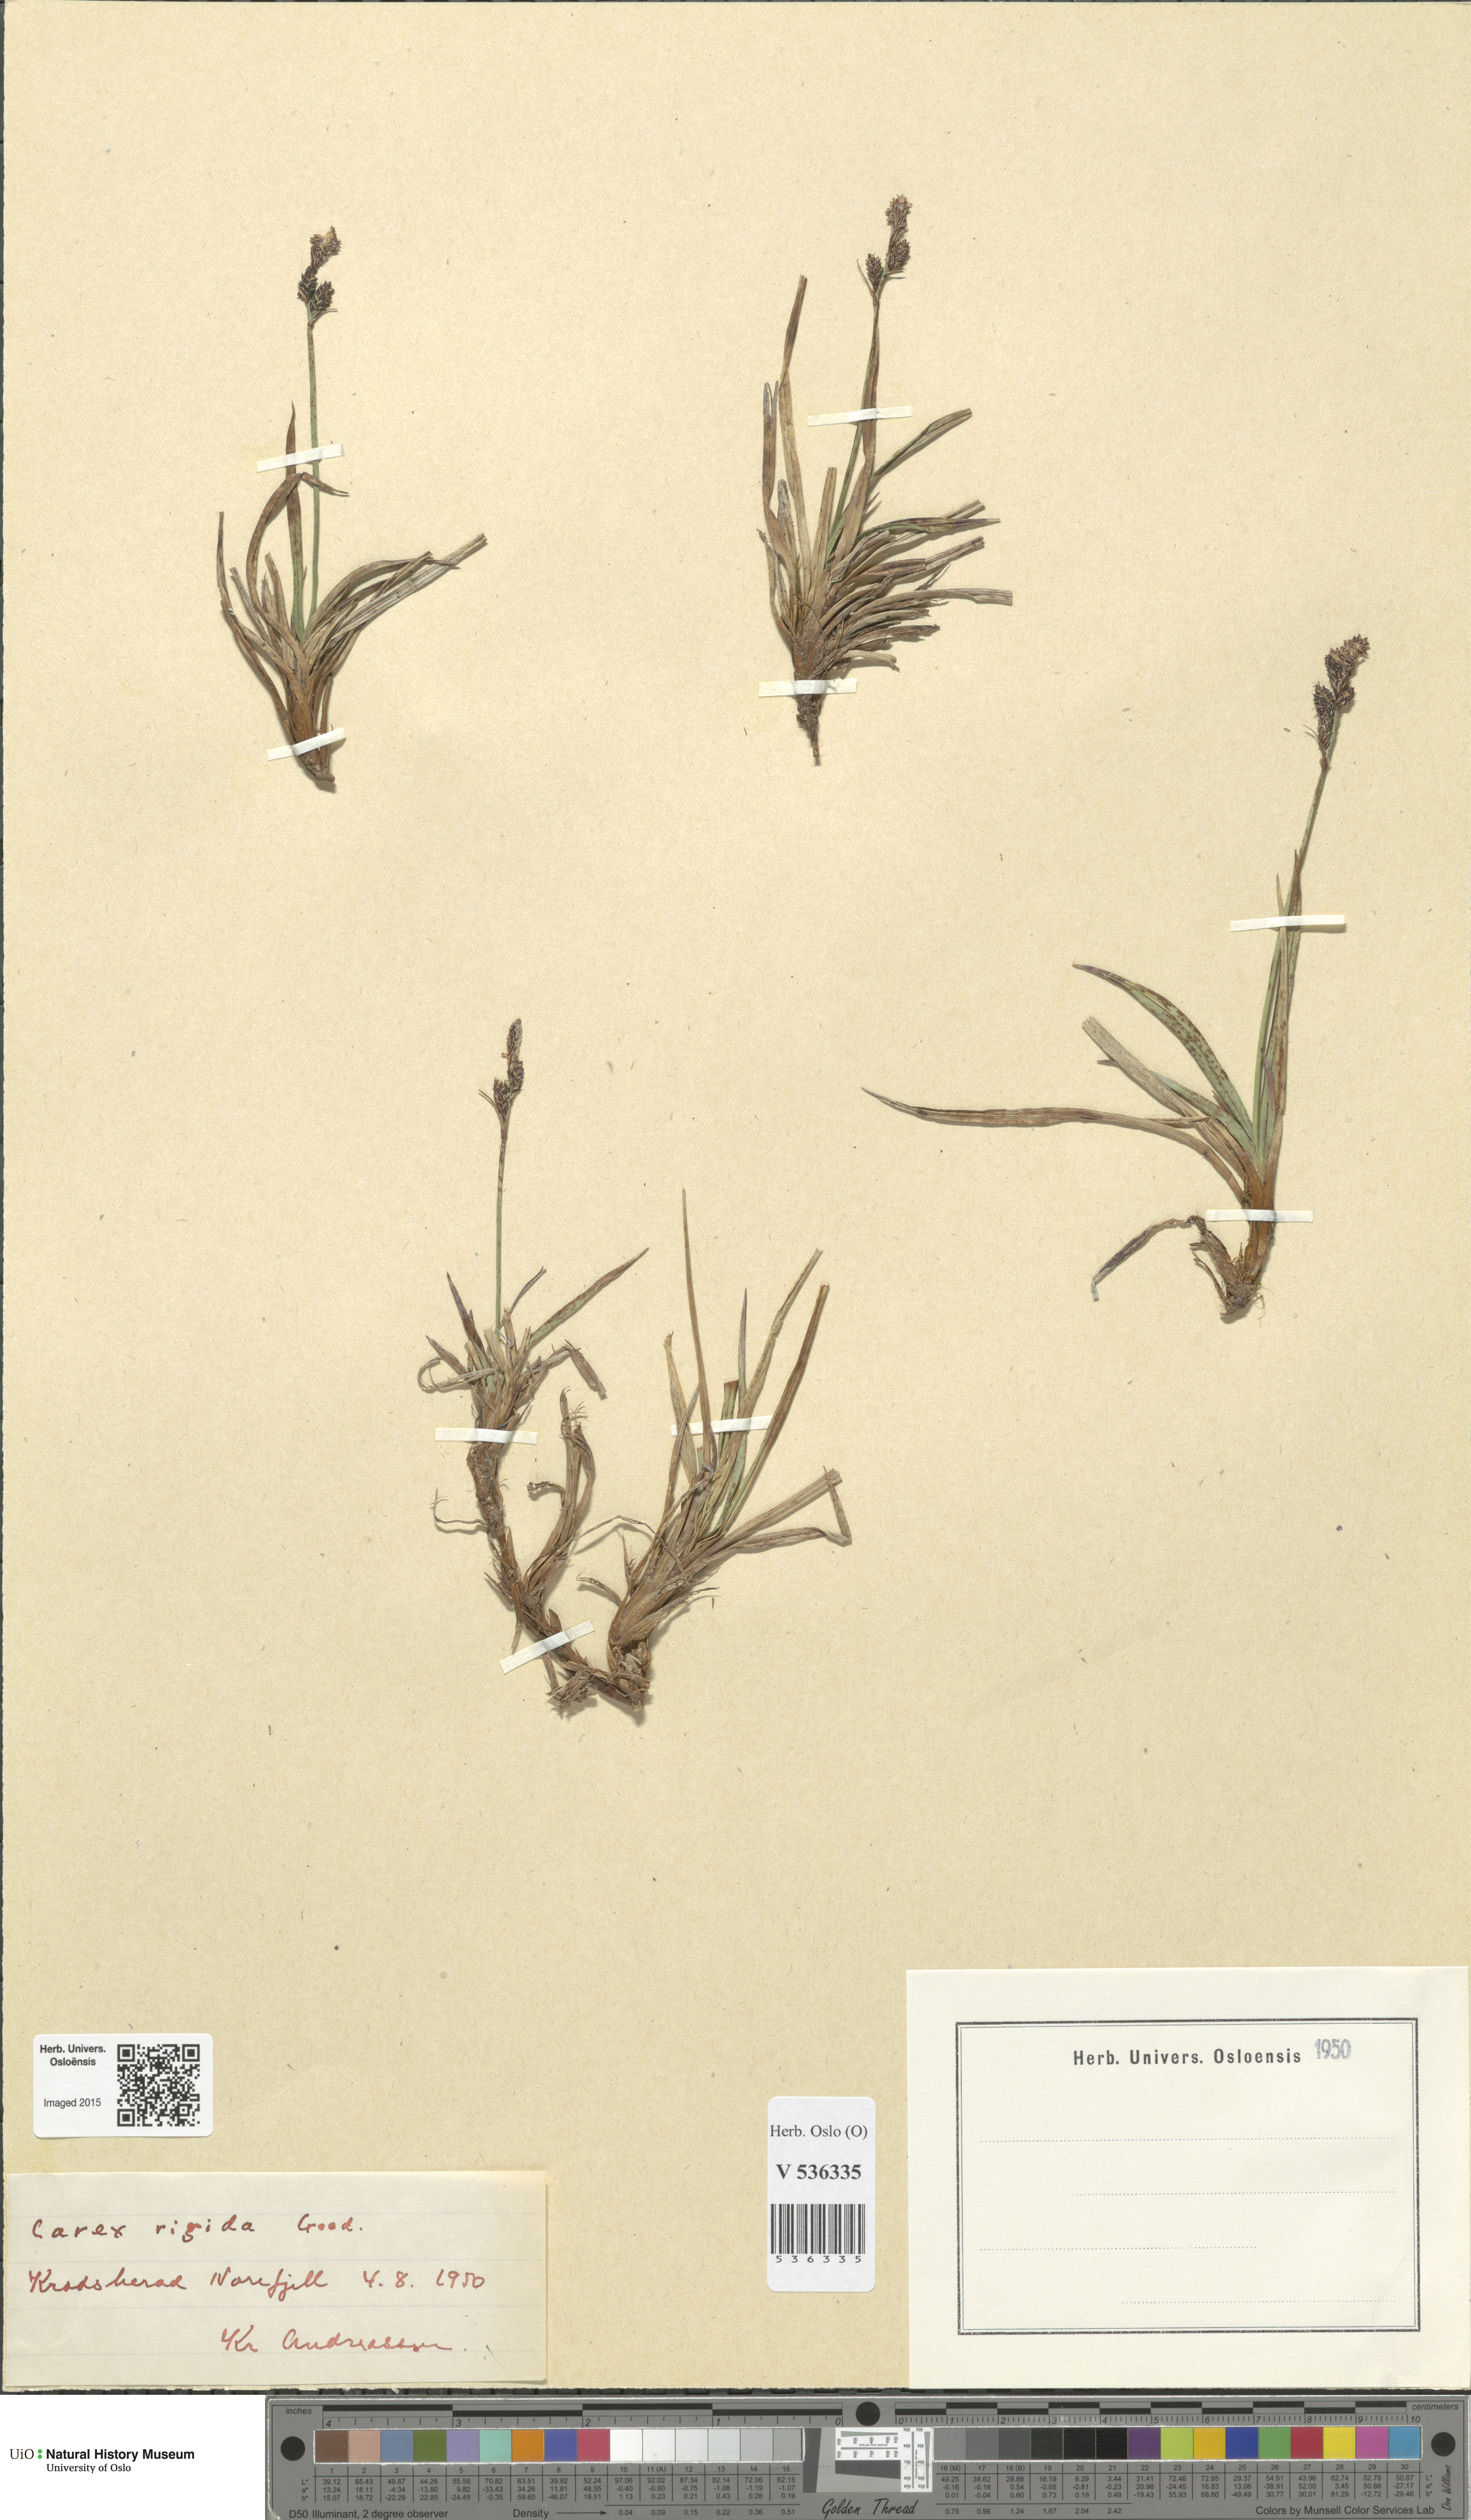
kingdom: Plantae
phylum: Tracheophyta
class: Liliopsida
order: Poales
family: Cyperaceae
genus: Carex
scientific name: Carex dacica
